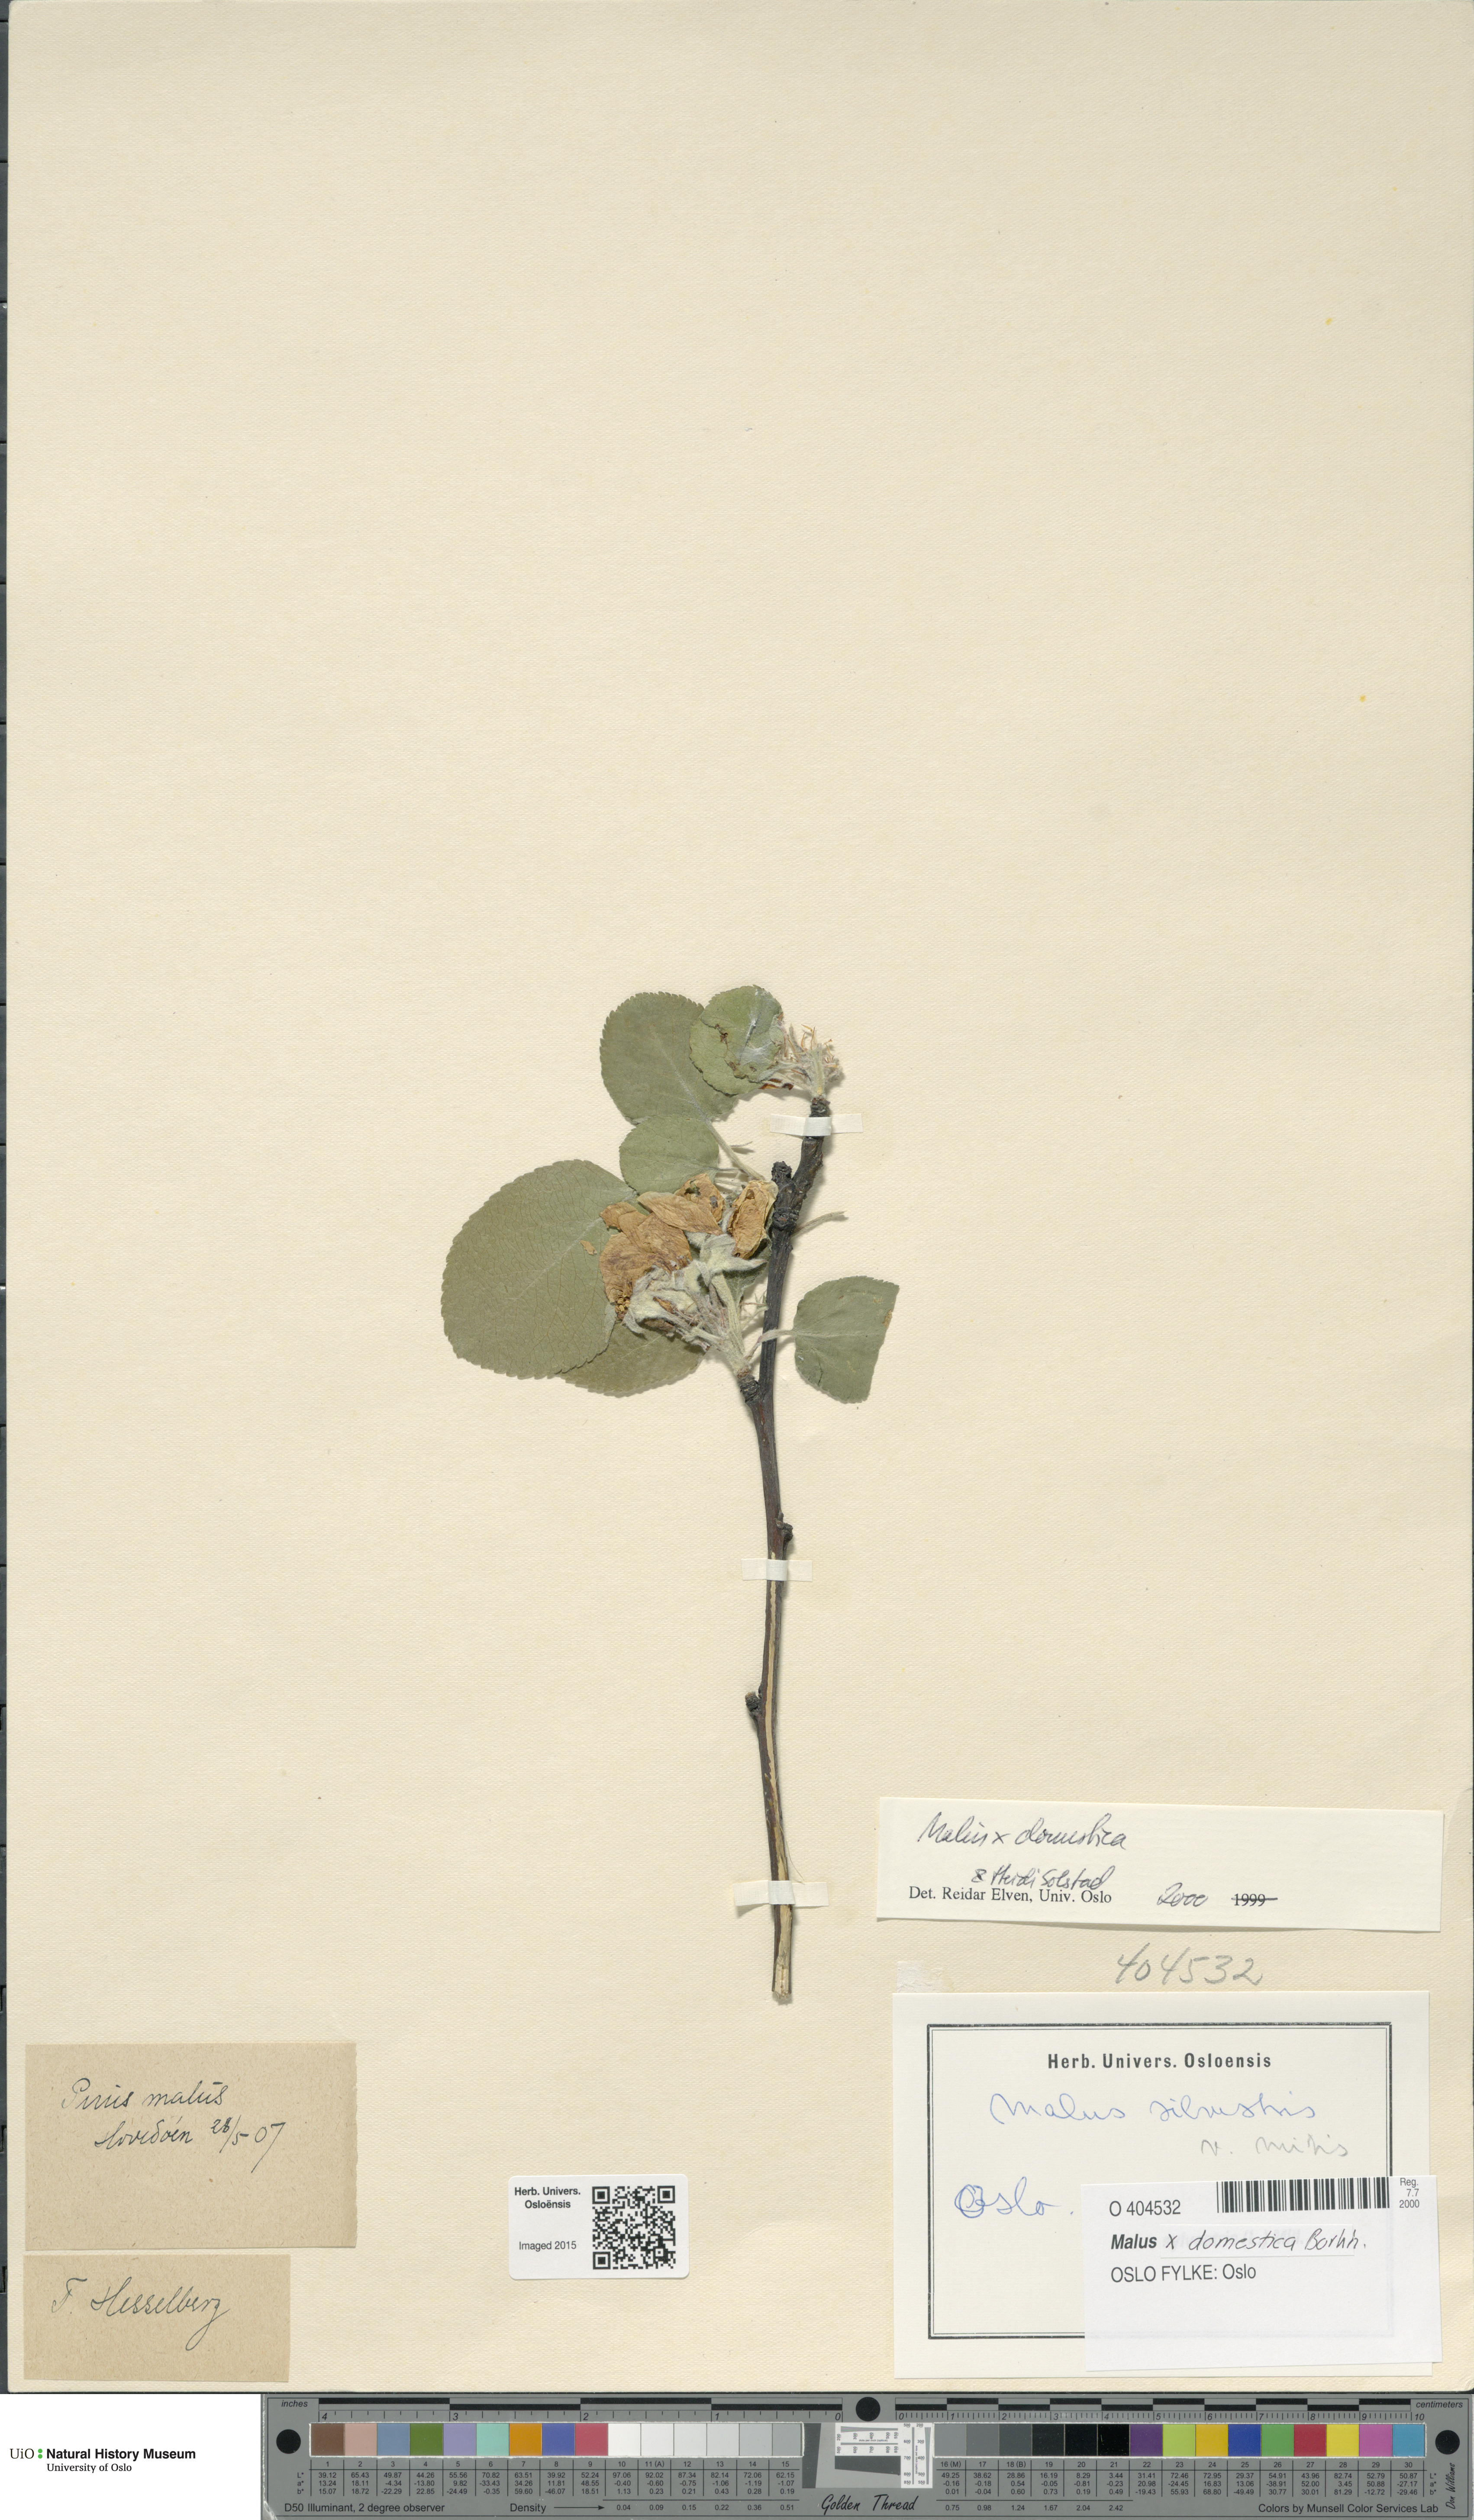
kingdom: Plantae
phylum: Tracheophyta
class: Magnoliopsida
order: Rosales
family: Rosaceae
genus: Malus
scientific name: Malus domestica
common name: Apple
